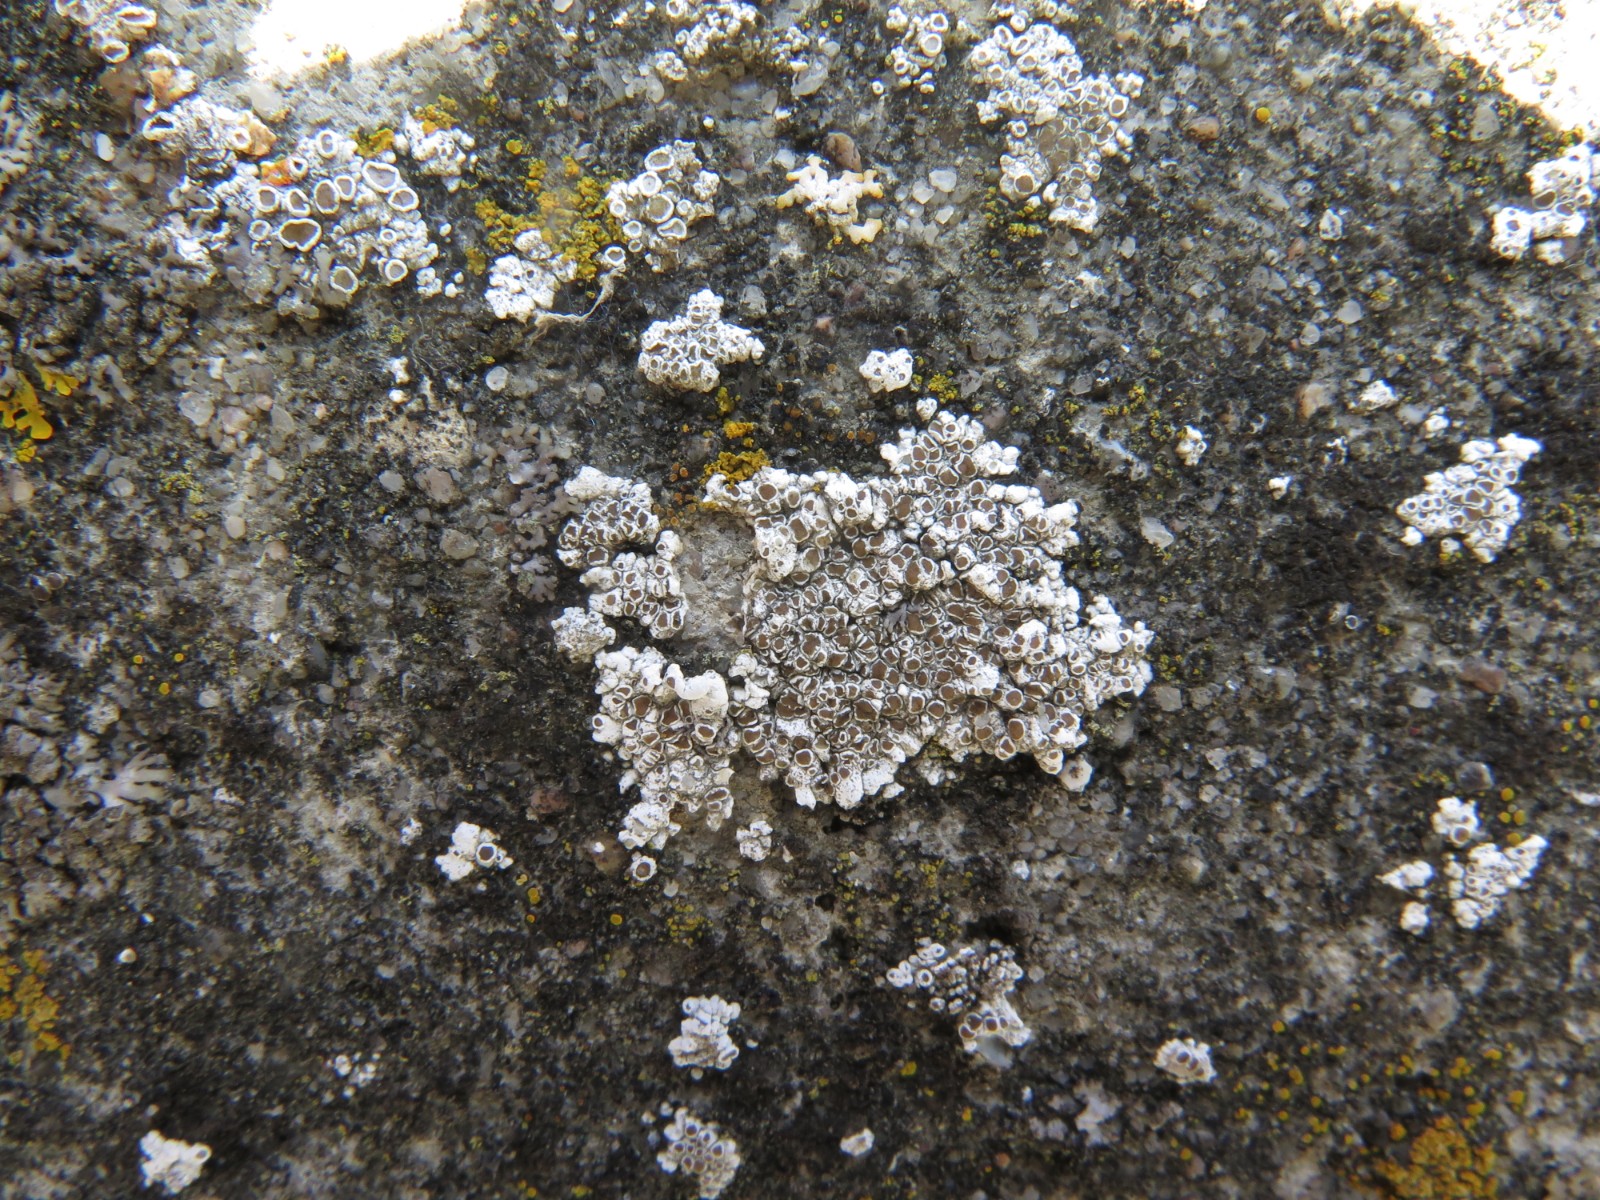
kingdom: Fungi
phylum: Ascomycota
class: Lecanoromycetes
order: Lecanorales
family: Lecanoraceae
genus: Polyozosia
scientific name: Polyozosia albescens
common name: cement-kantskivelav
